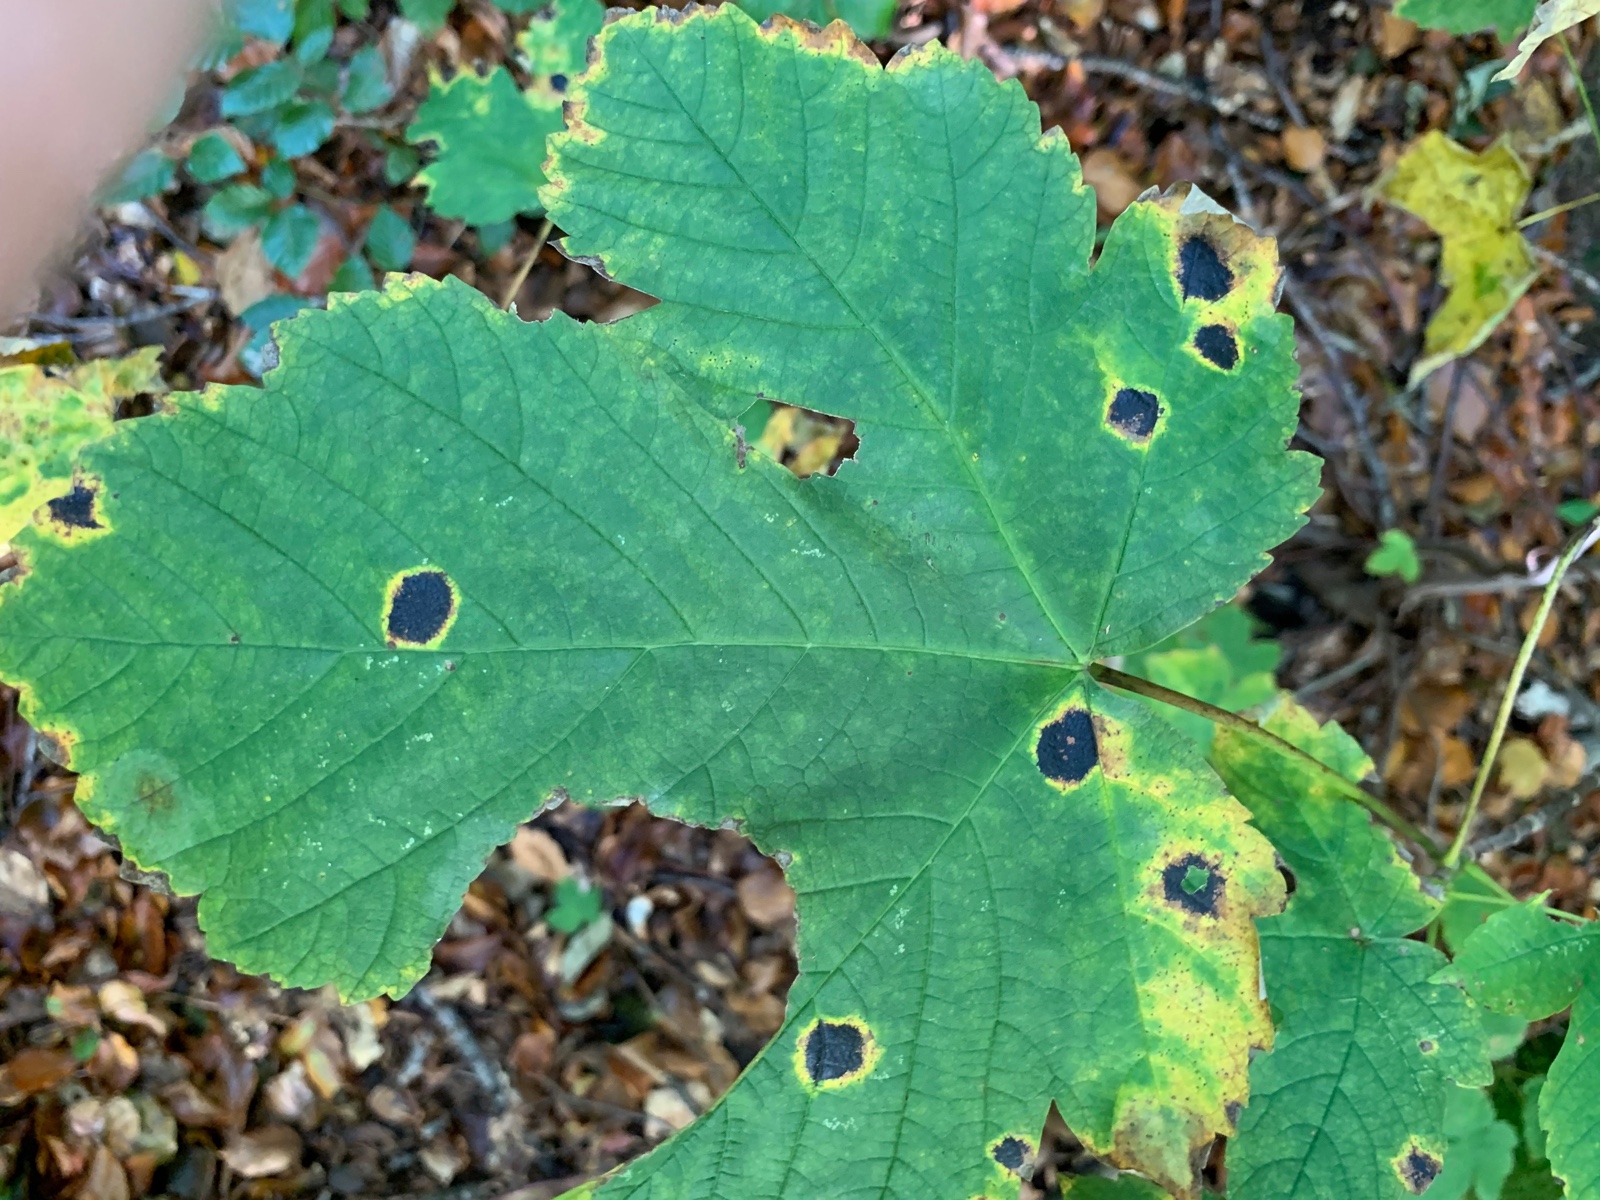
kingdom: Fungi
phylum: Ascomycota
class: Leotiomycetes
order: Rhytismatales
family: Rhytismataceae
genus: Rhytisma
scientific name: Rhytisma acerinum
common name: ahorn-rynkeplet
